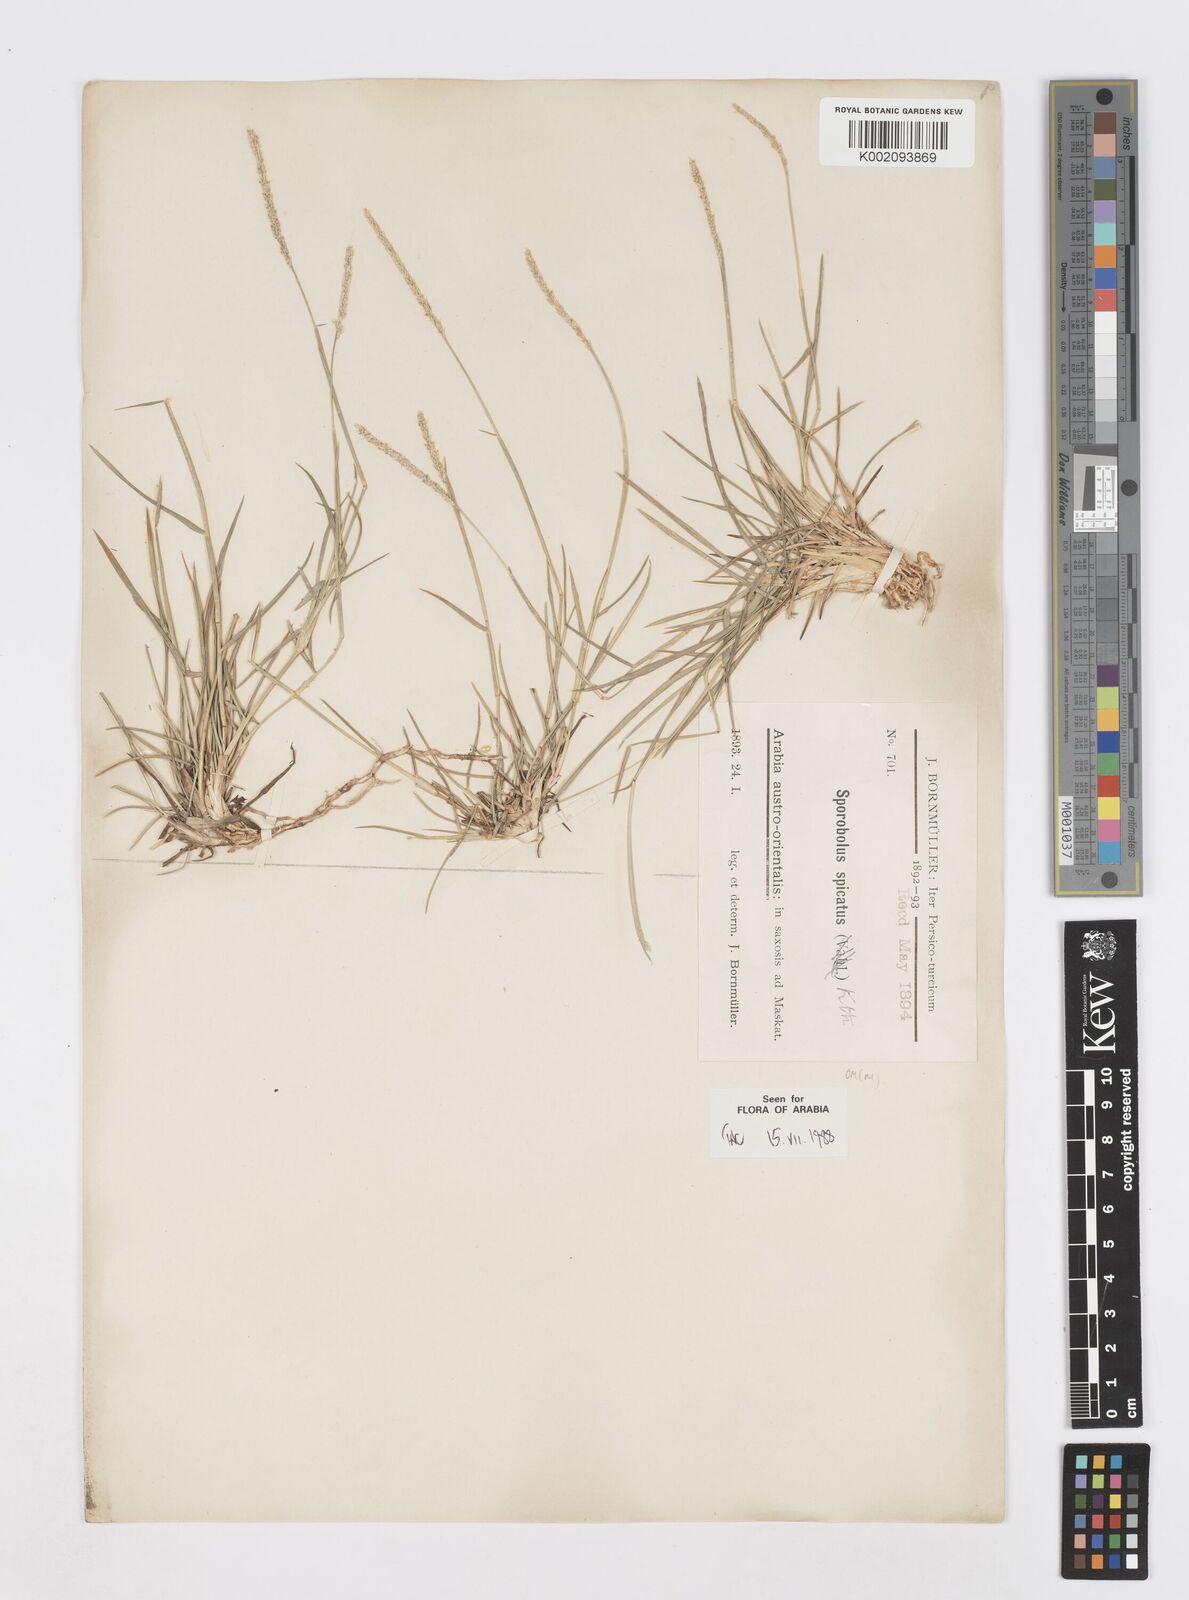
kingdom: Plantae
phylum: Tracheophyta
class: Liliopsida
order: Poales
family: Poaceae
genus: Sporobolus
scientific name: Sporobolus spicatus
